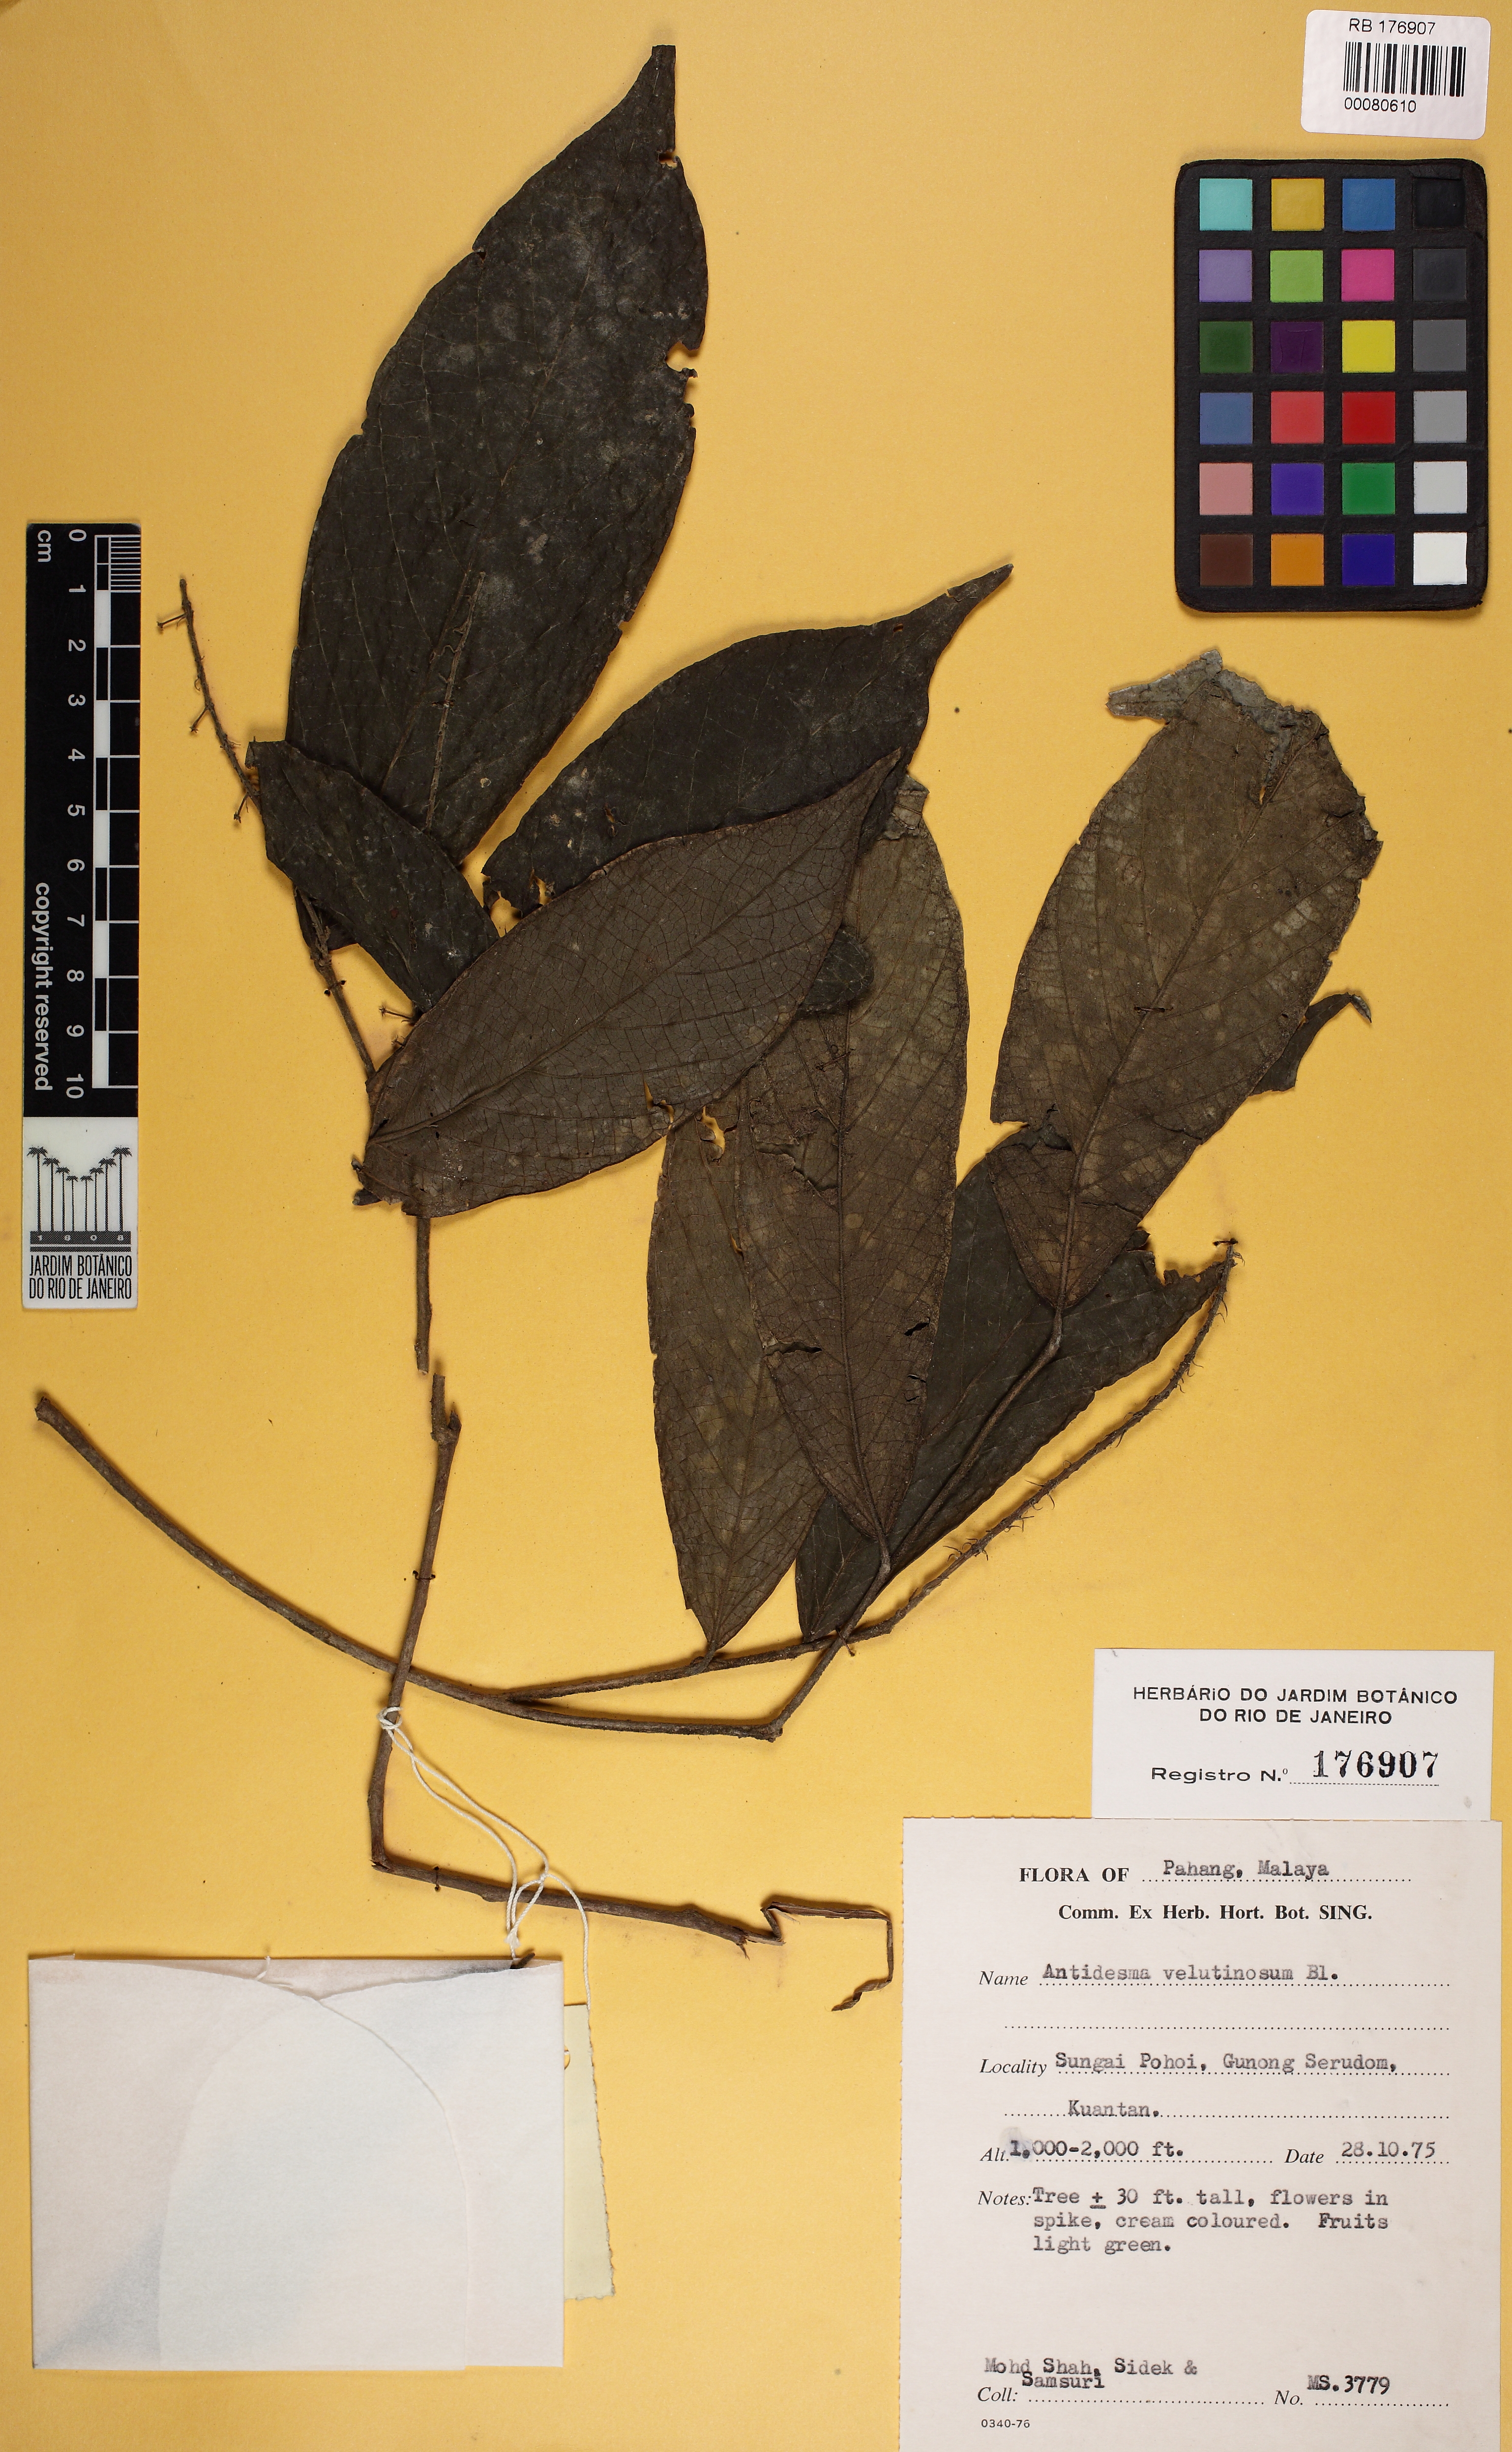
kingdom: Plantae
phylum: Tracheophyta
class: Magnoliopsida
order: Malpighiales
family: Phyllanthaceae
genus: Antidesma
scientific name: Antidesma velutinosum
